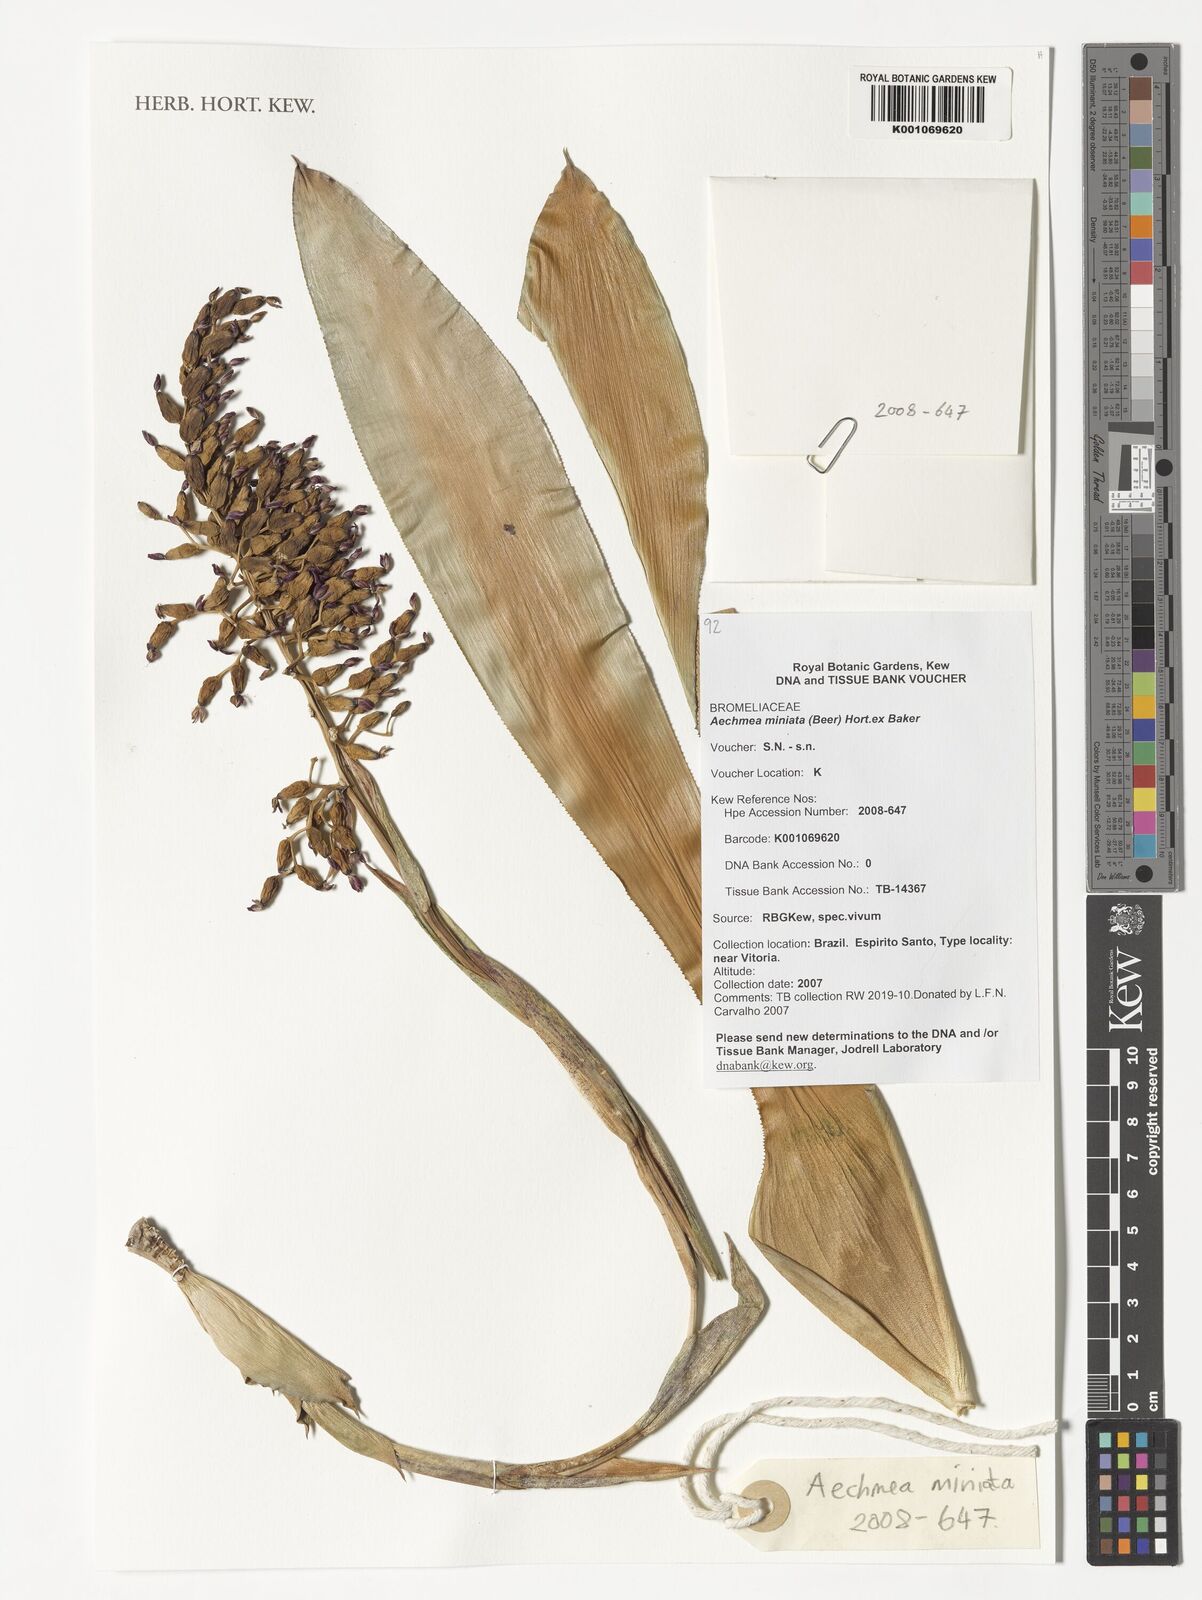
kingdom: Plantae
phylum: Tracheophyta
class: Liliopsida
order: Poales
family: Bromeliaceae
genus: Aechmea
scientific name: Aechmea miniata
